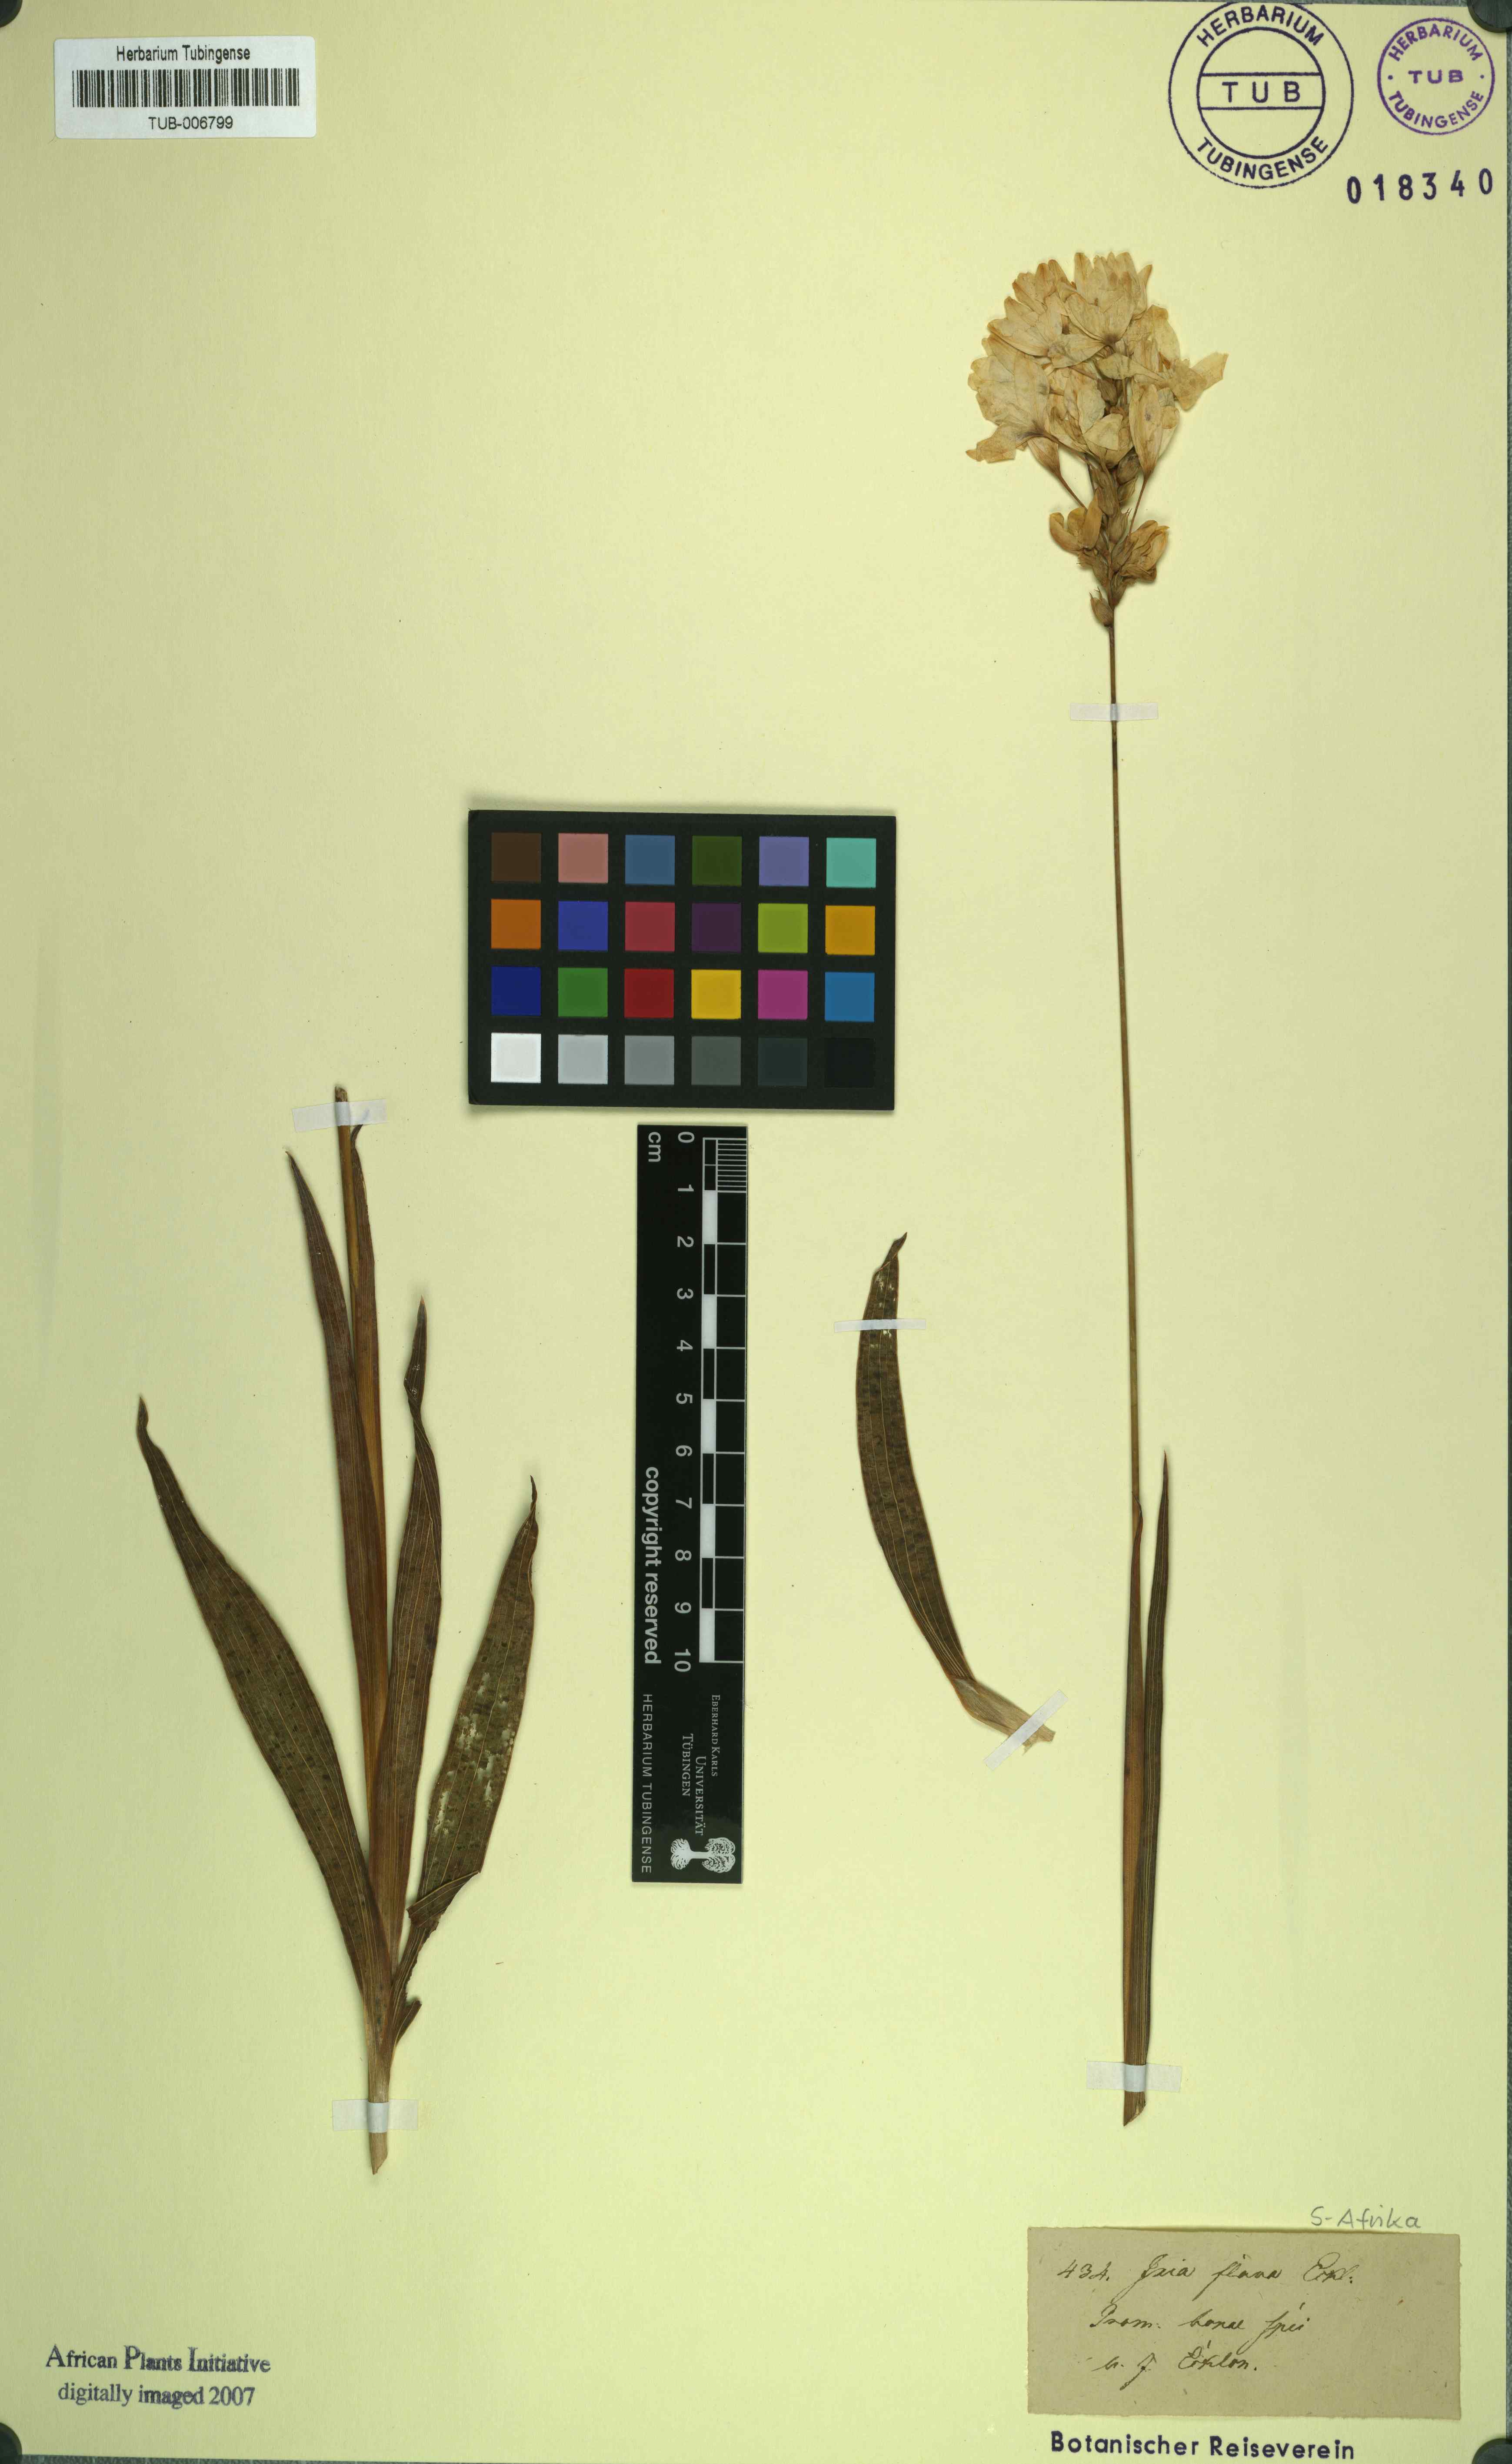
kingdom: Plantae
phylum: Tracheophyta
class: Liliopsida
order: Asparagales
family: Iridaceae
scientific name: Iridaceae
